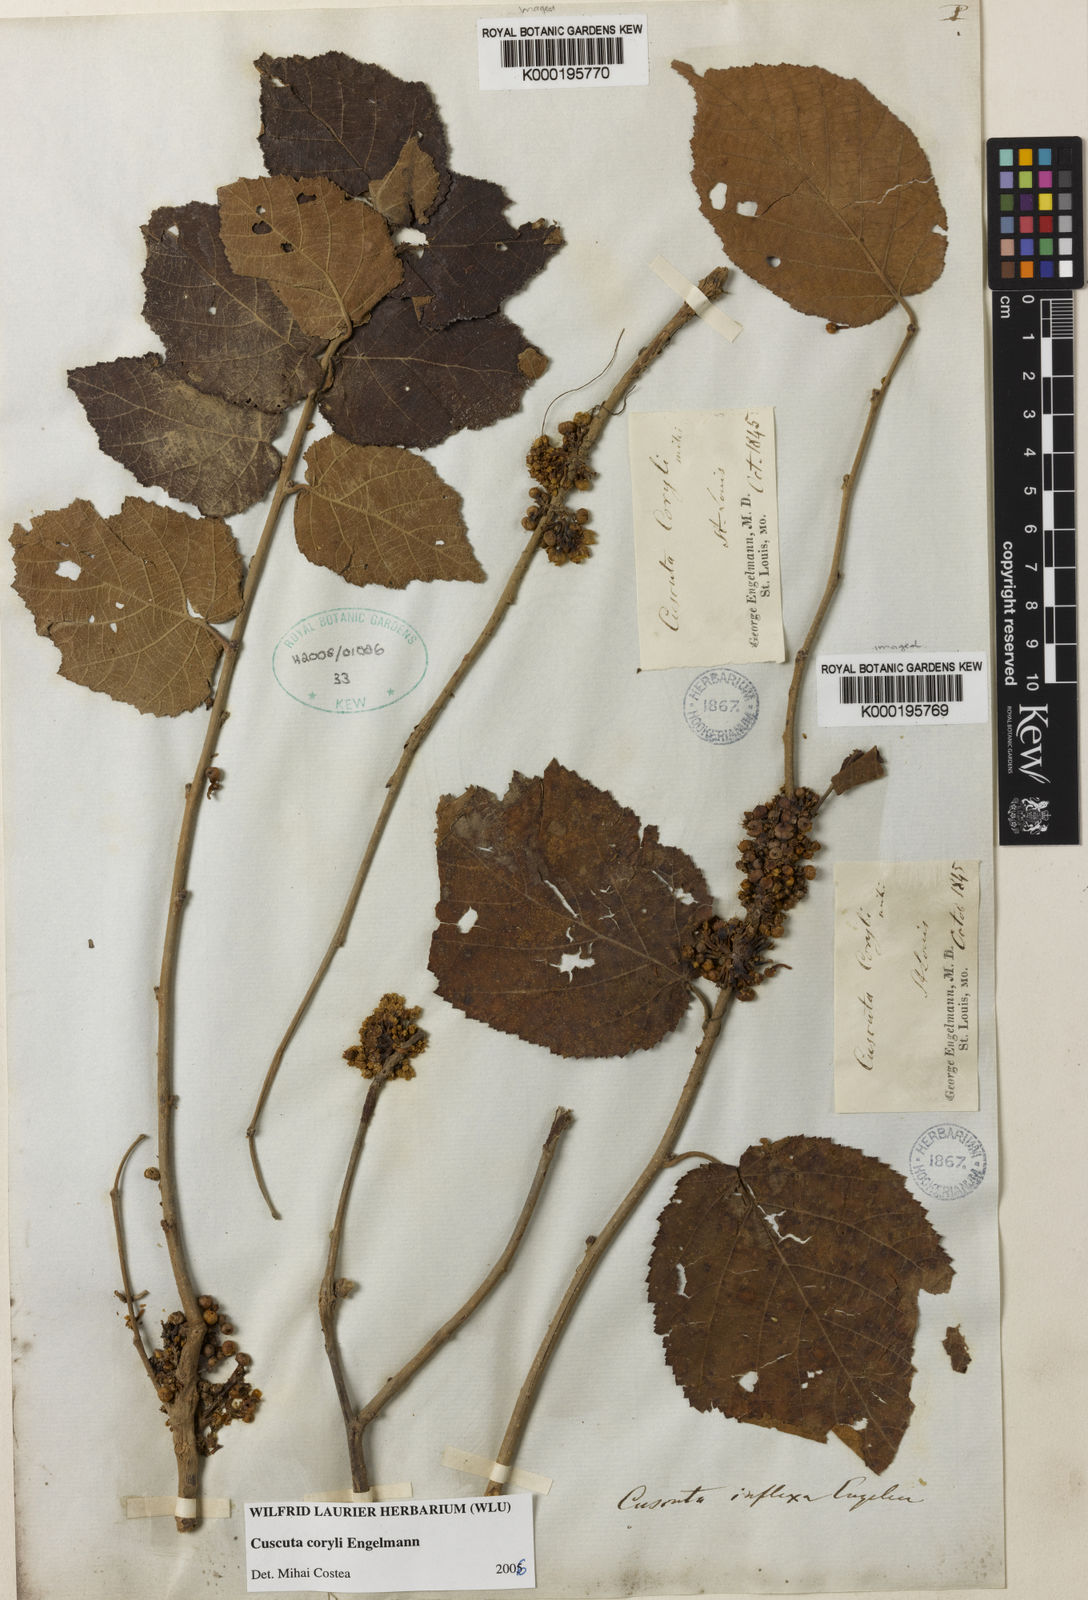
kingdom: Plantae
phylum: Tracheophyta
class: Magnoliopsida
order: Solanales
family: Convolvulaceae
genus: Cuscuta
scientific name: Cuscuta coryli
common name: Hazel dodder
